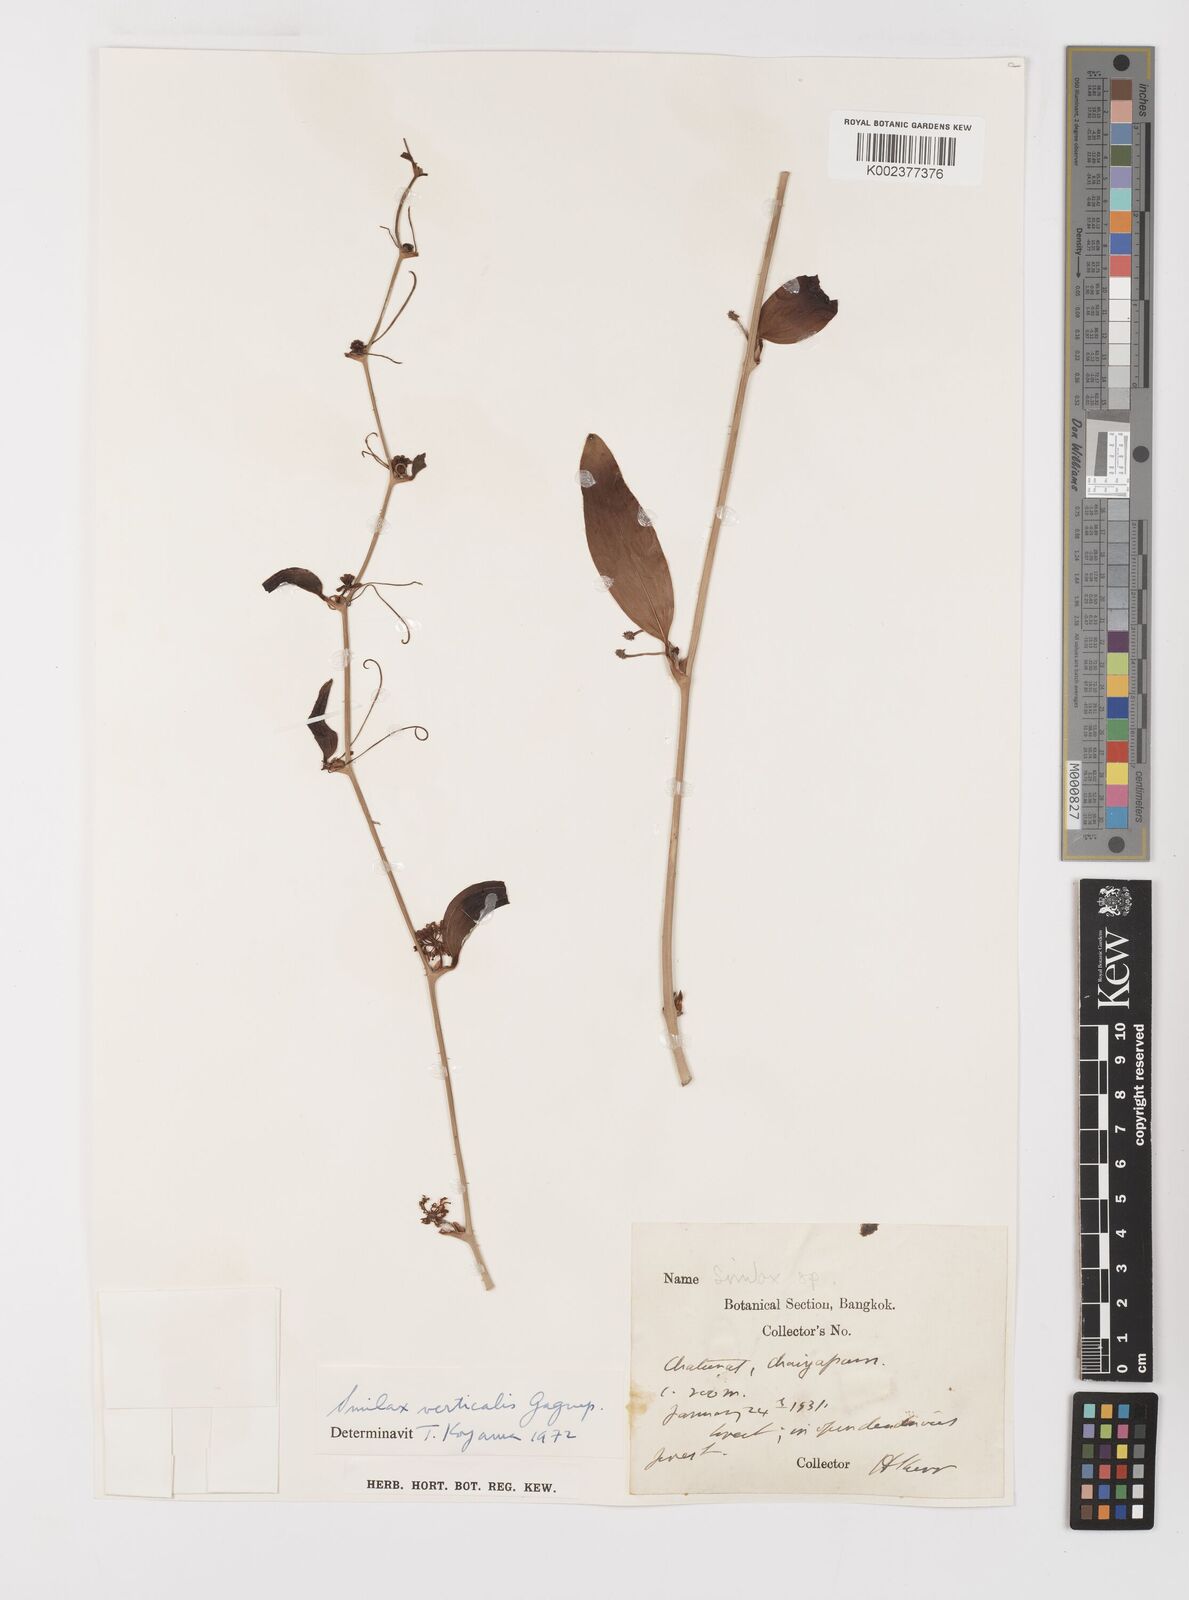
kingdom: Plantae
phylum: Tracheophyta
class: Liliopsida
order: Liliales
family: Smilacaceae
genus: Smilax
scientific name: Smilax verticalis
